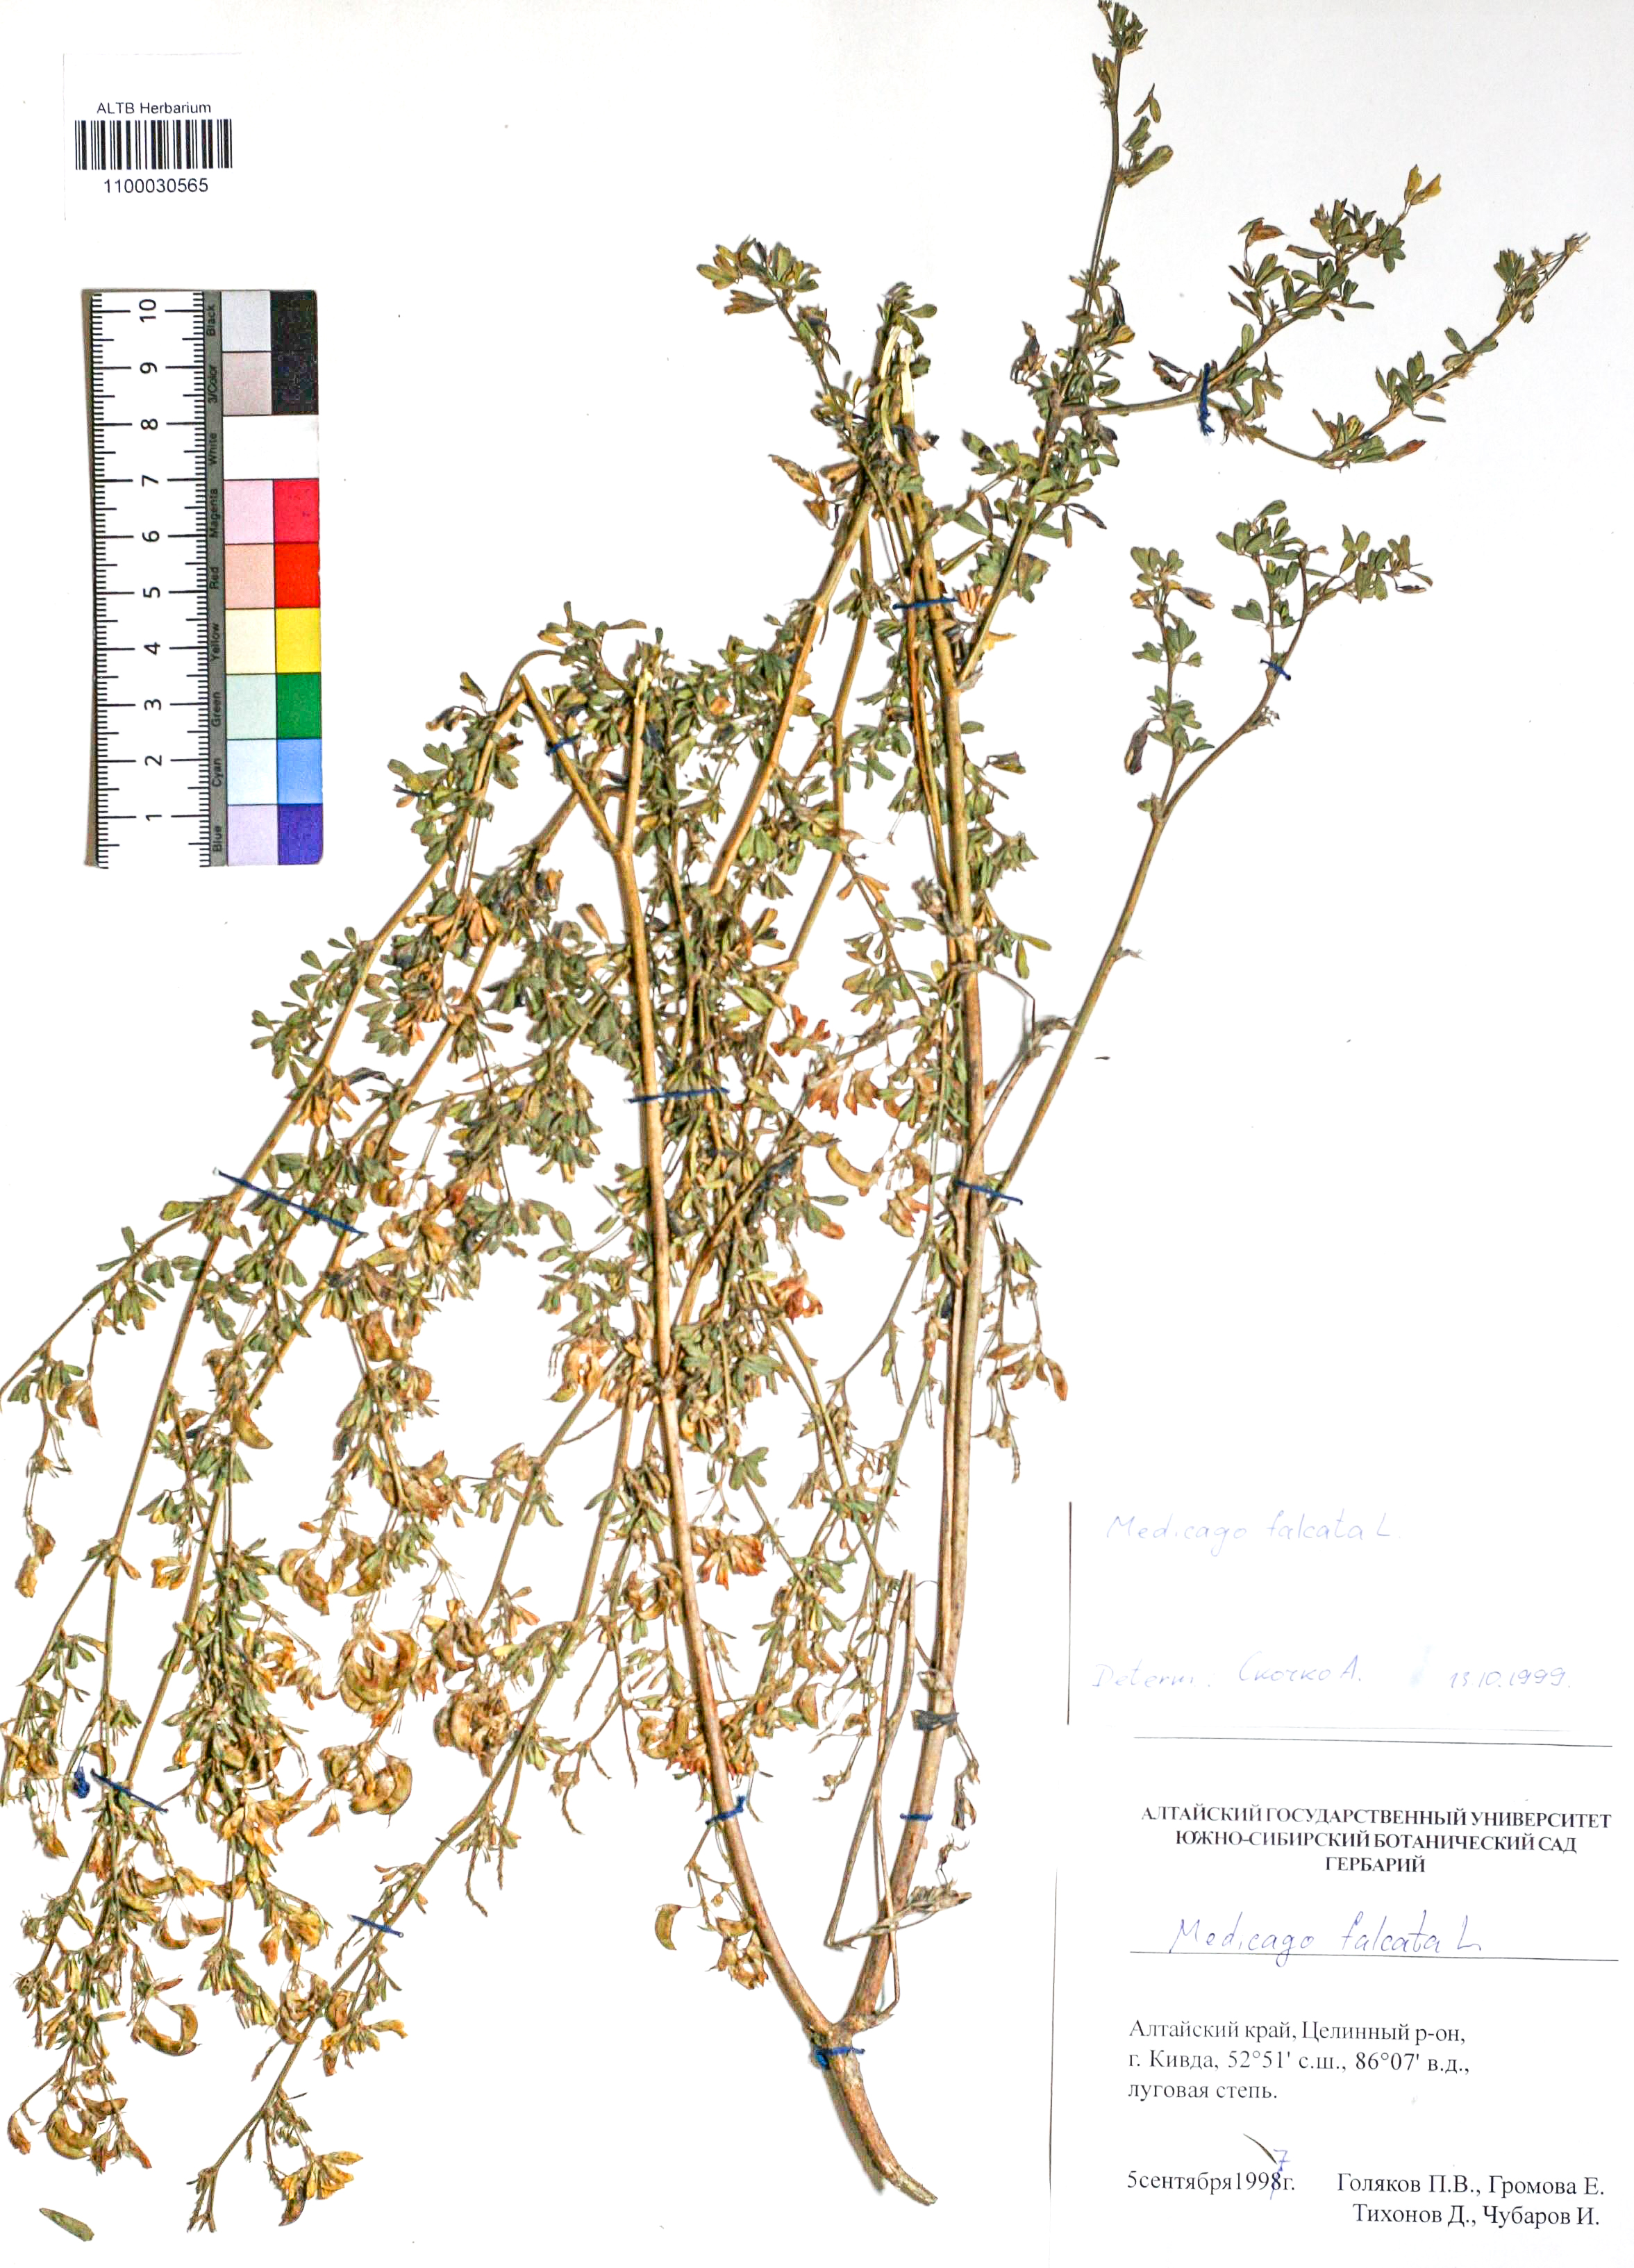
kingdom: Plantae
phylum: Tracheophyta
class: Magnoliopsida
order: Fabales
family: Fabaceae
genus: Medicago
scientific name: Medicago falcata
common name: Sickle medick
